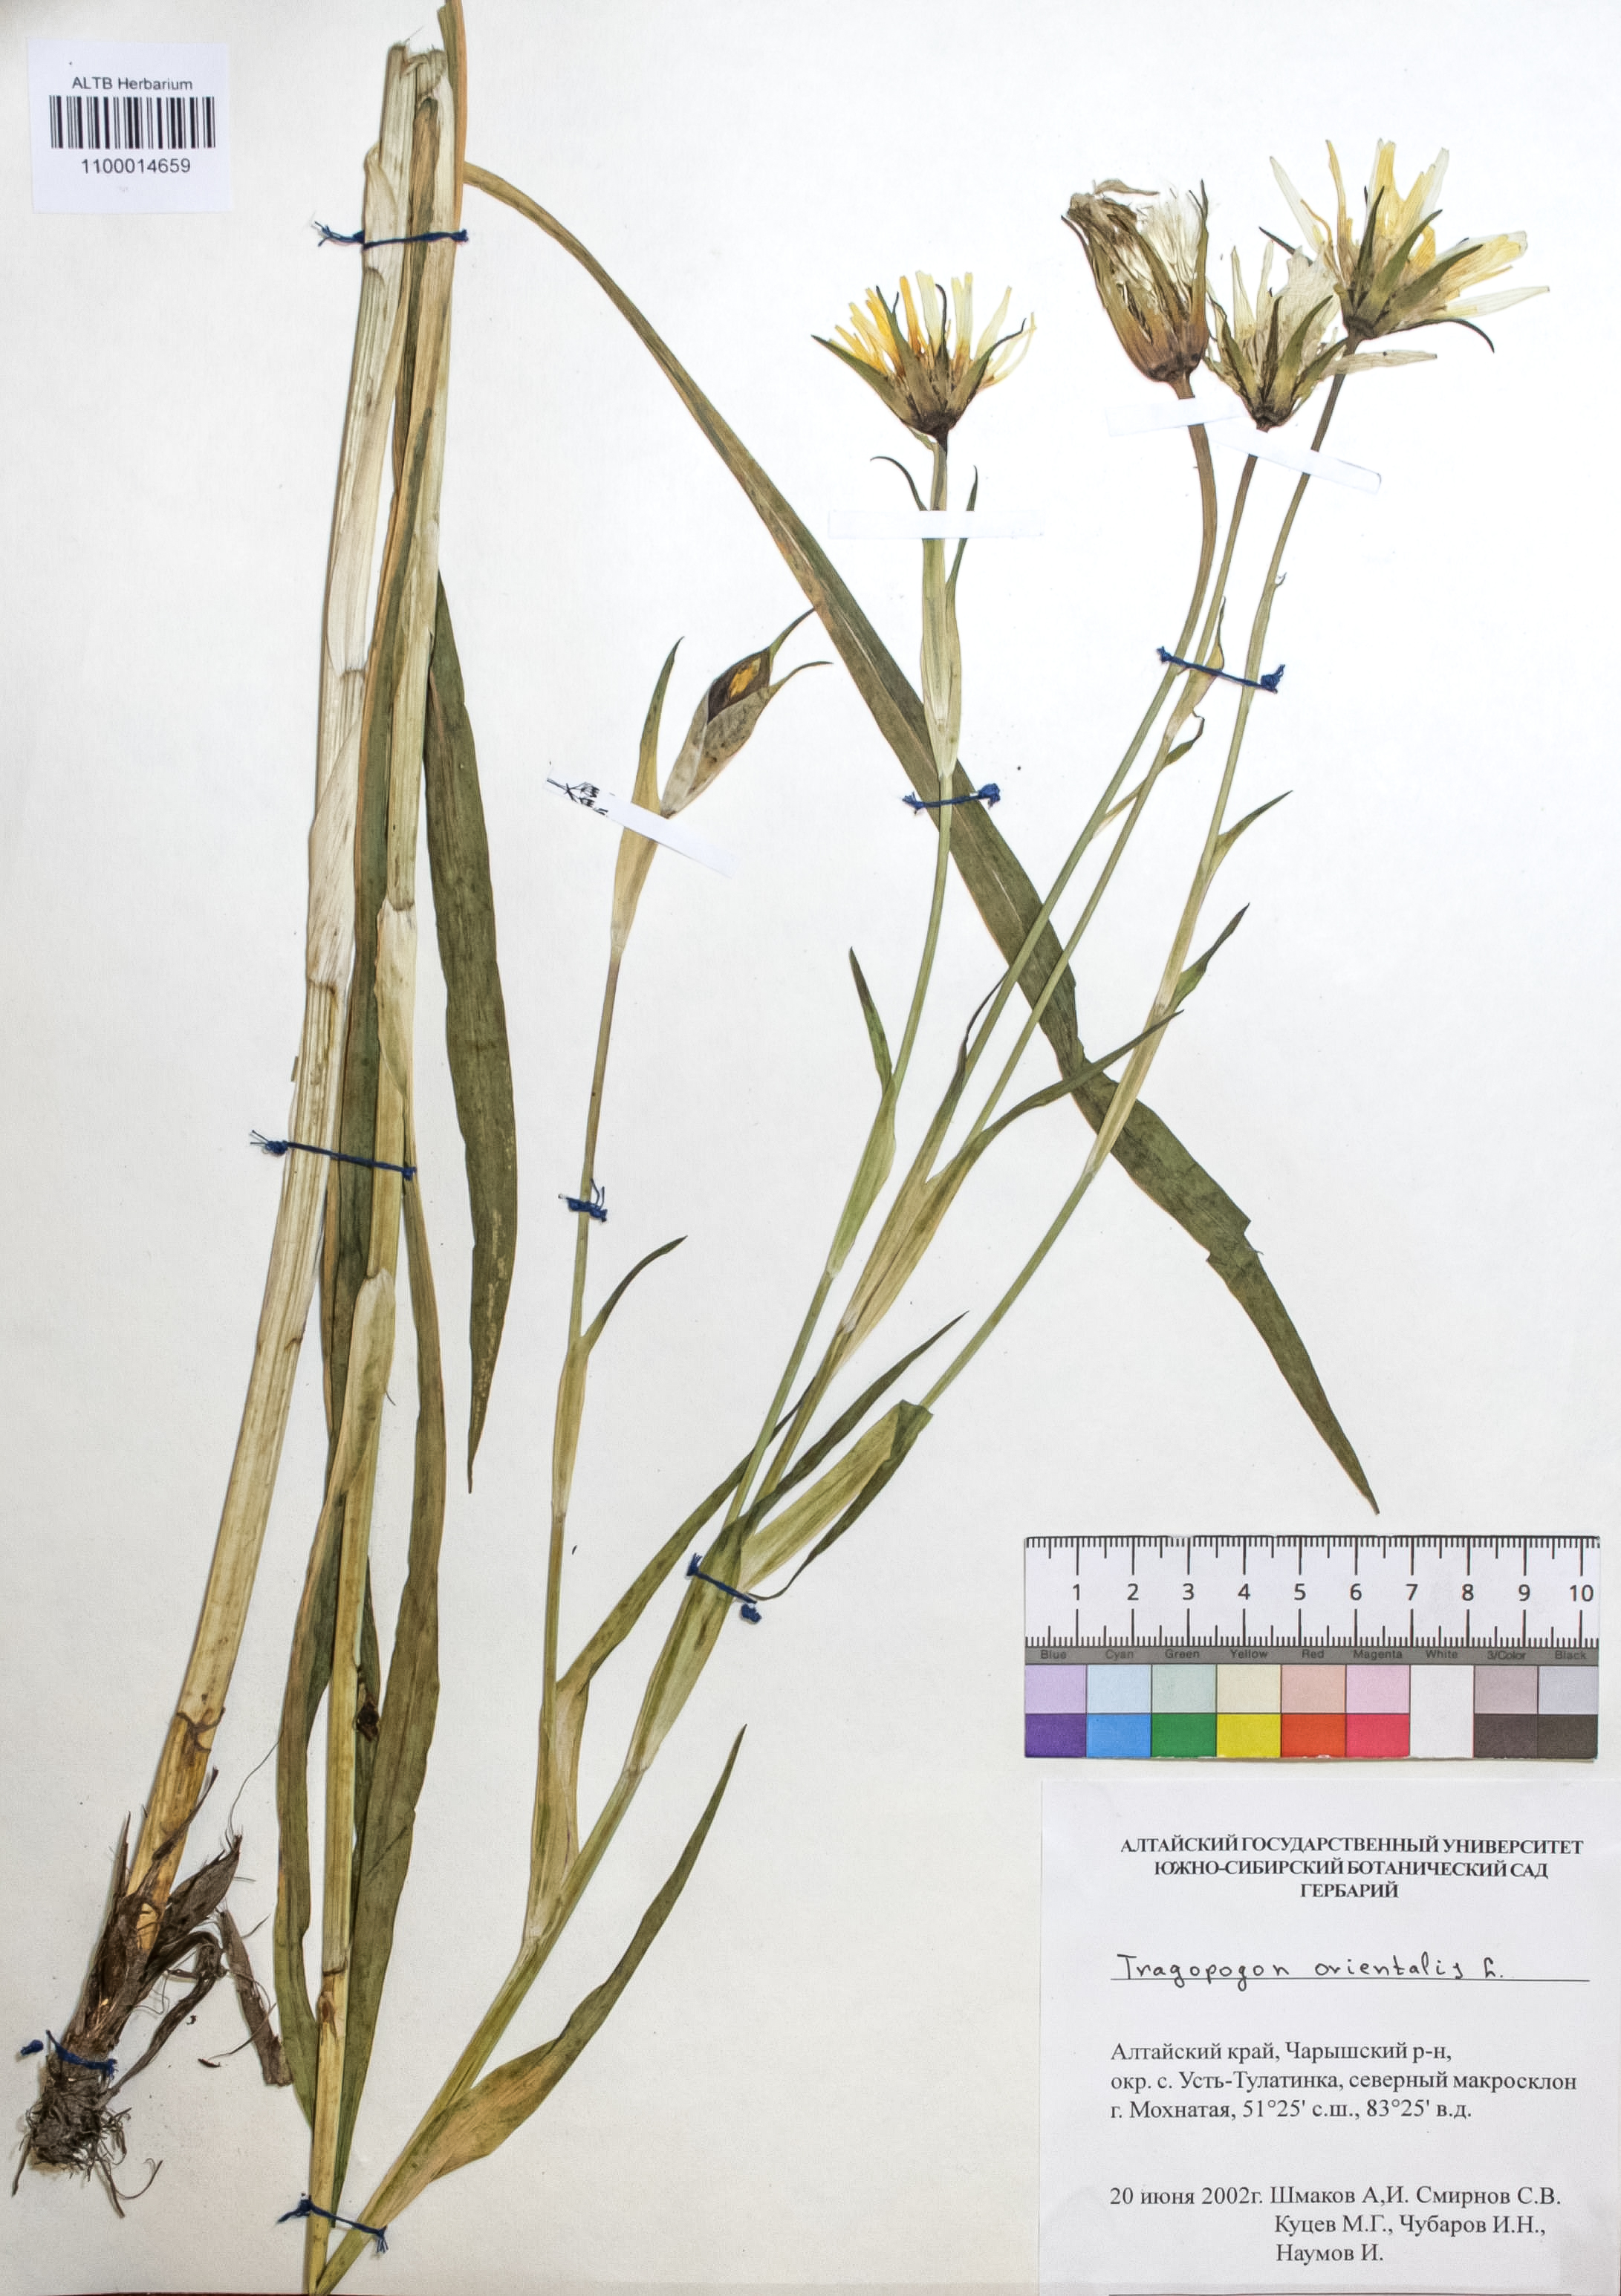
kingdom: Plantae
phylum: Tracheophyta
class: Magnoliopsida
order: Asterales
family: Asteraceae
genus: Tragopogon
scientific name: Tragopogon orientalis
